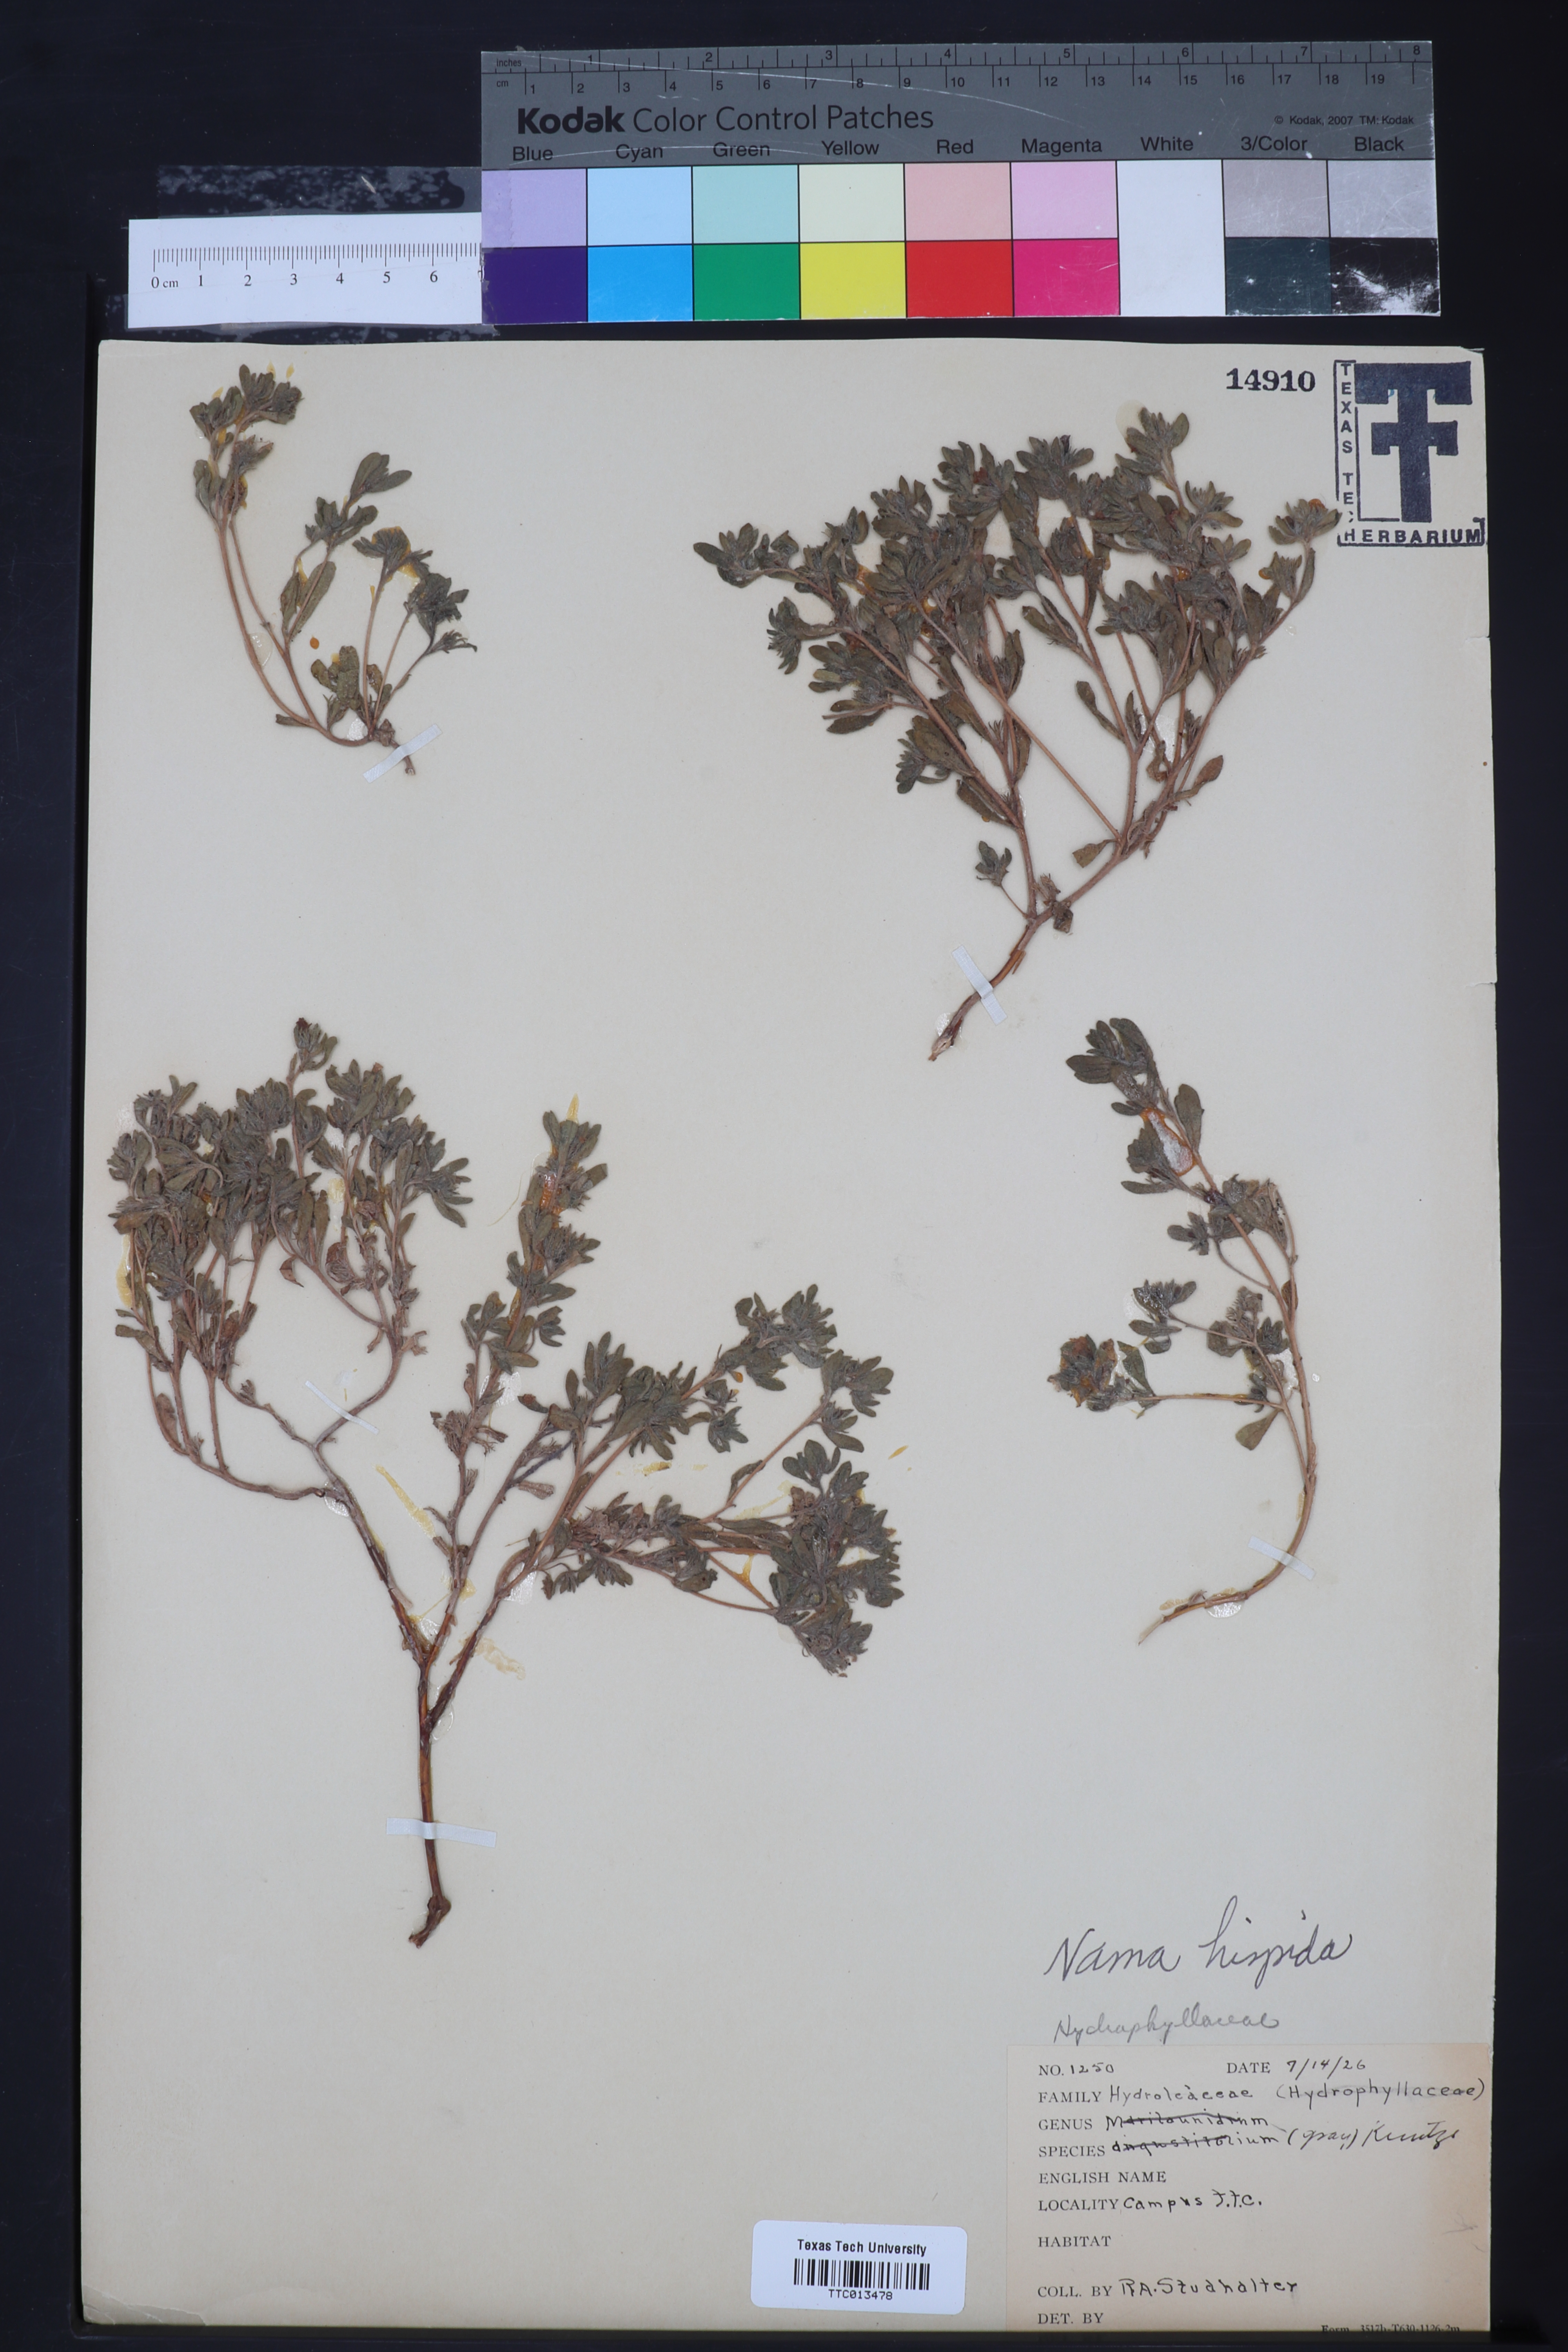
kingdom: Plantae
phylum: Tracheophyta
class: Magnoliopsida
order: Boraginales
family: Namaceae
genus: Nama
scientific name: Nama hispida
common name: Bristly nama
